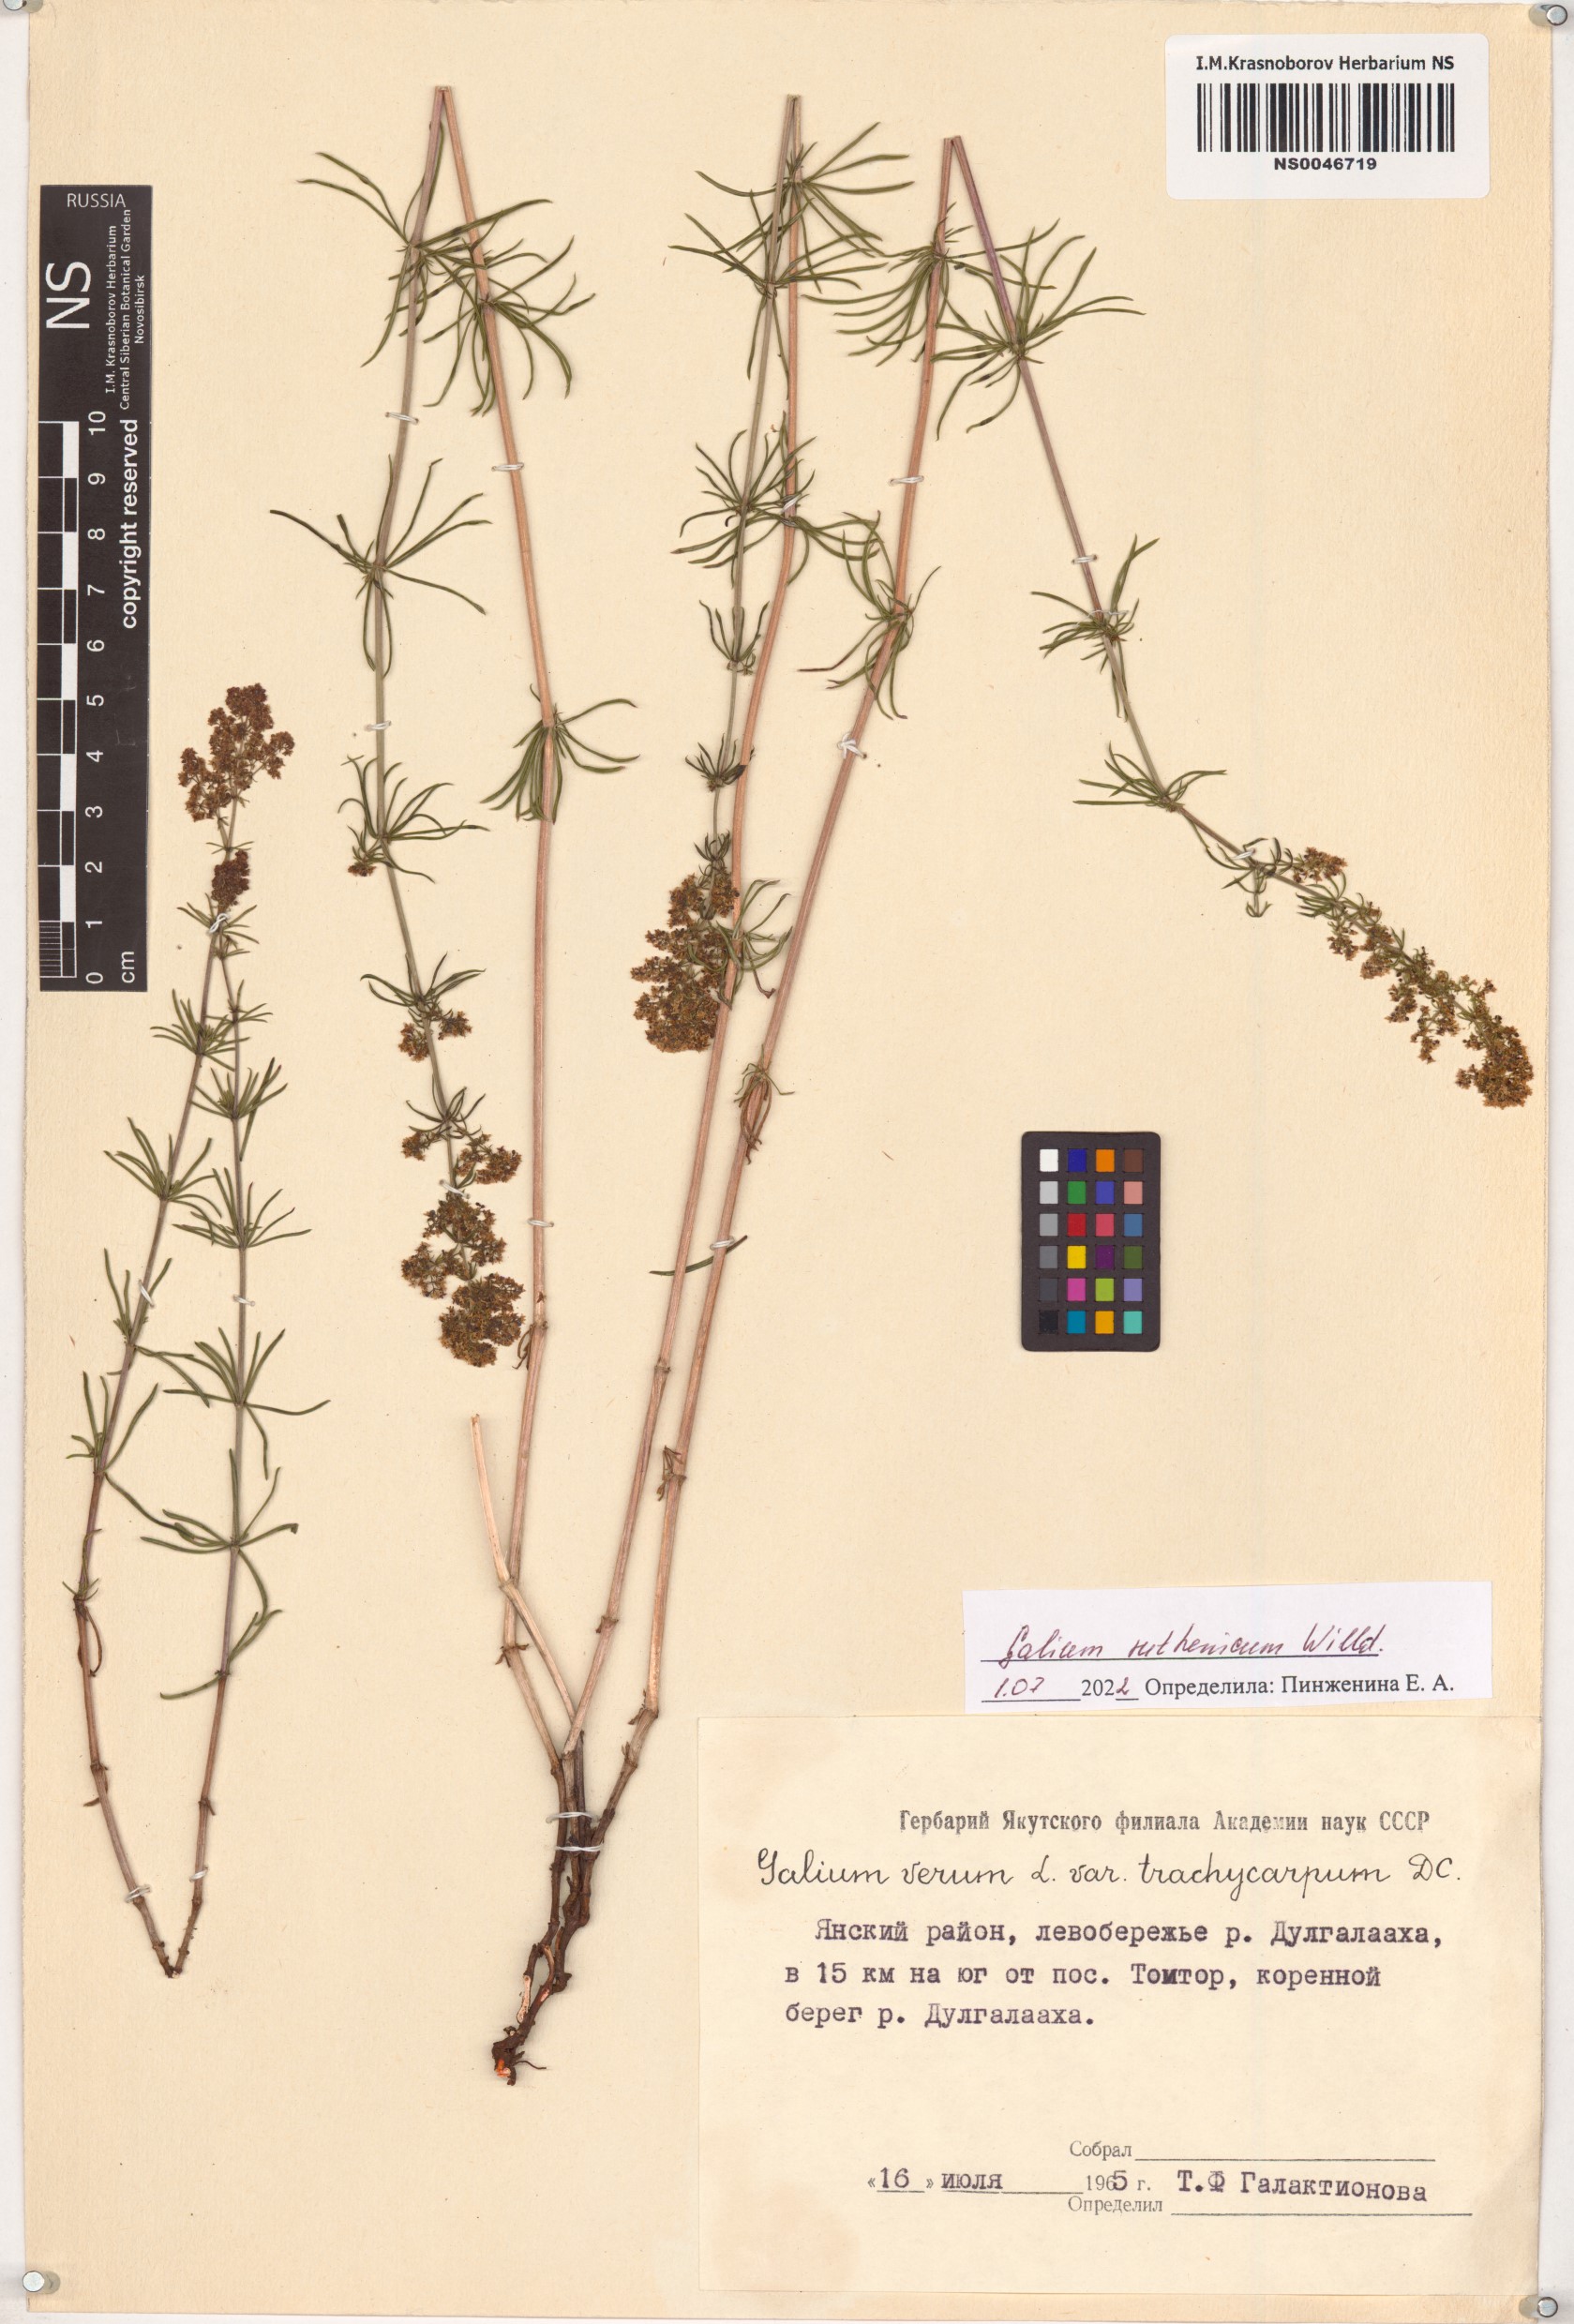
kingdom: Plantae
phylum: Tracheophyta
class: Magnoliopsida
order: Gentianales
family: Rubiaceae
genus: Galium
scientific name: Galium verum
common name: Lady's bedstraw
